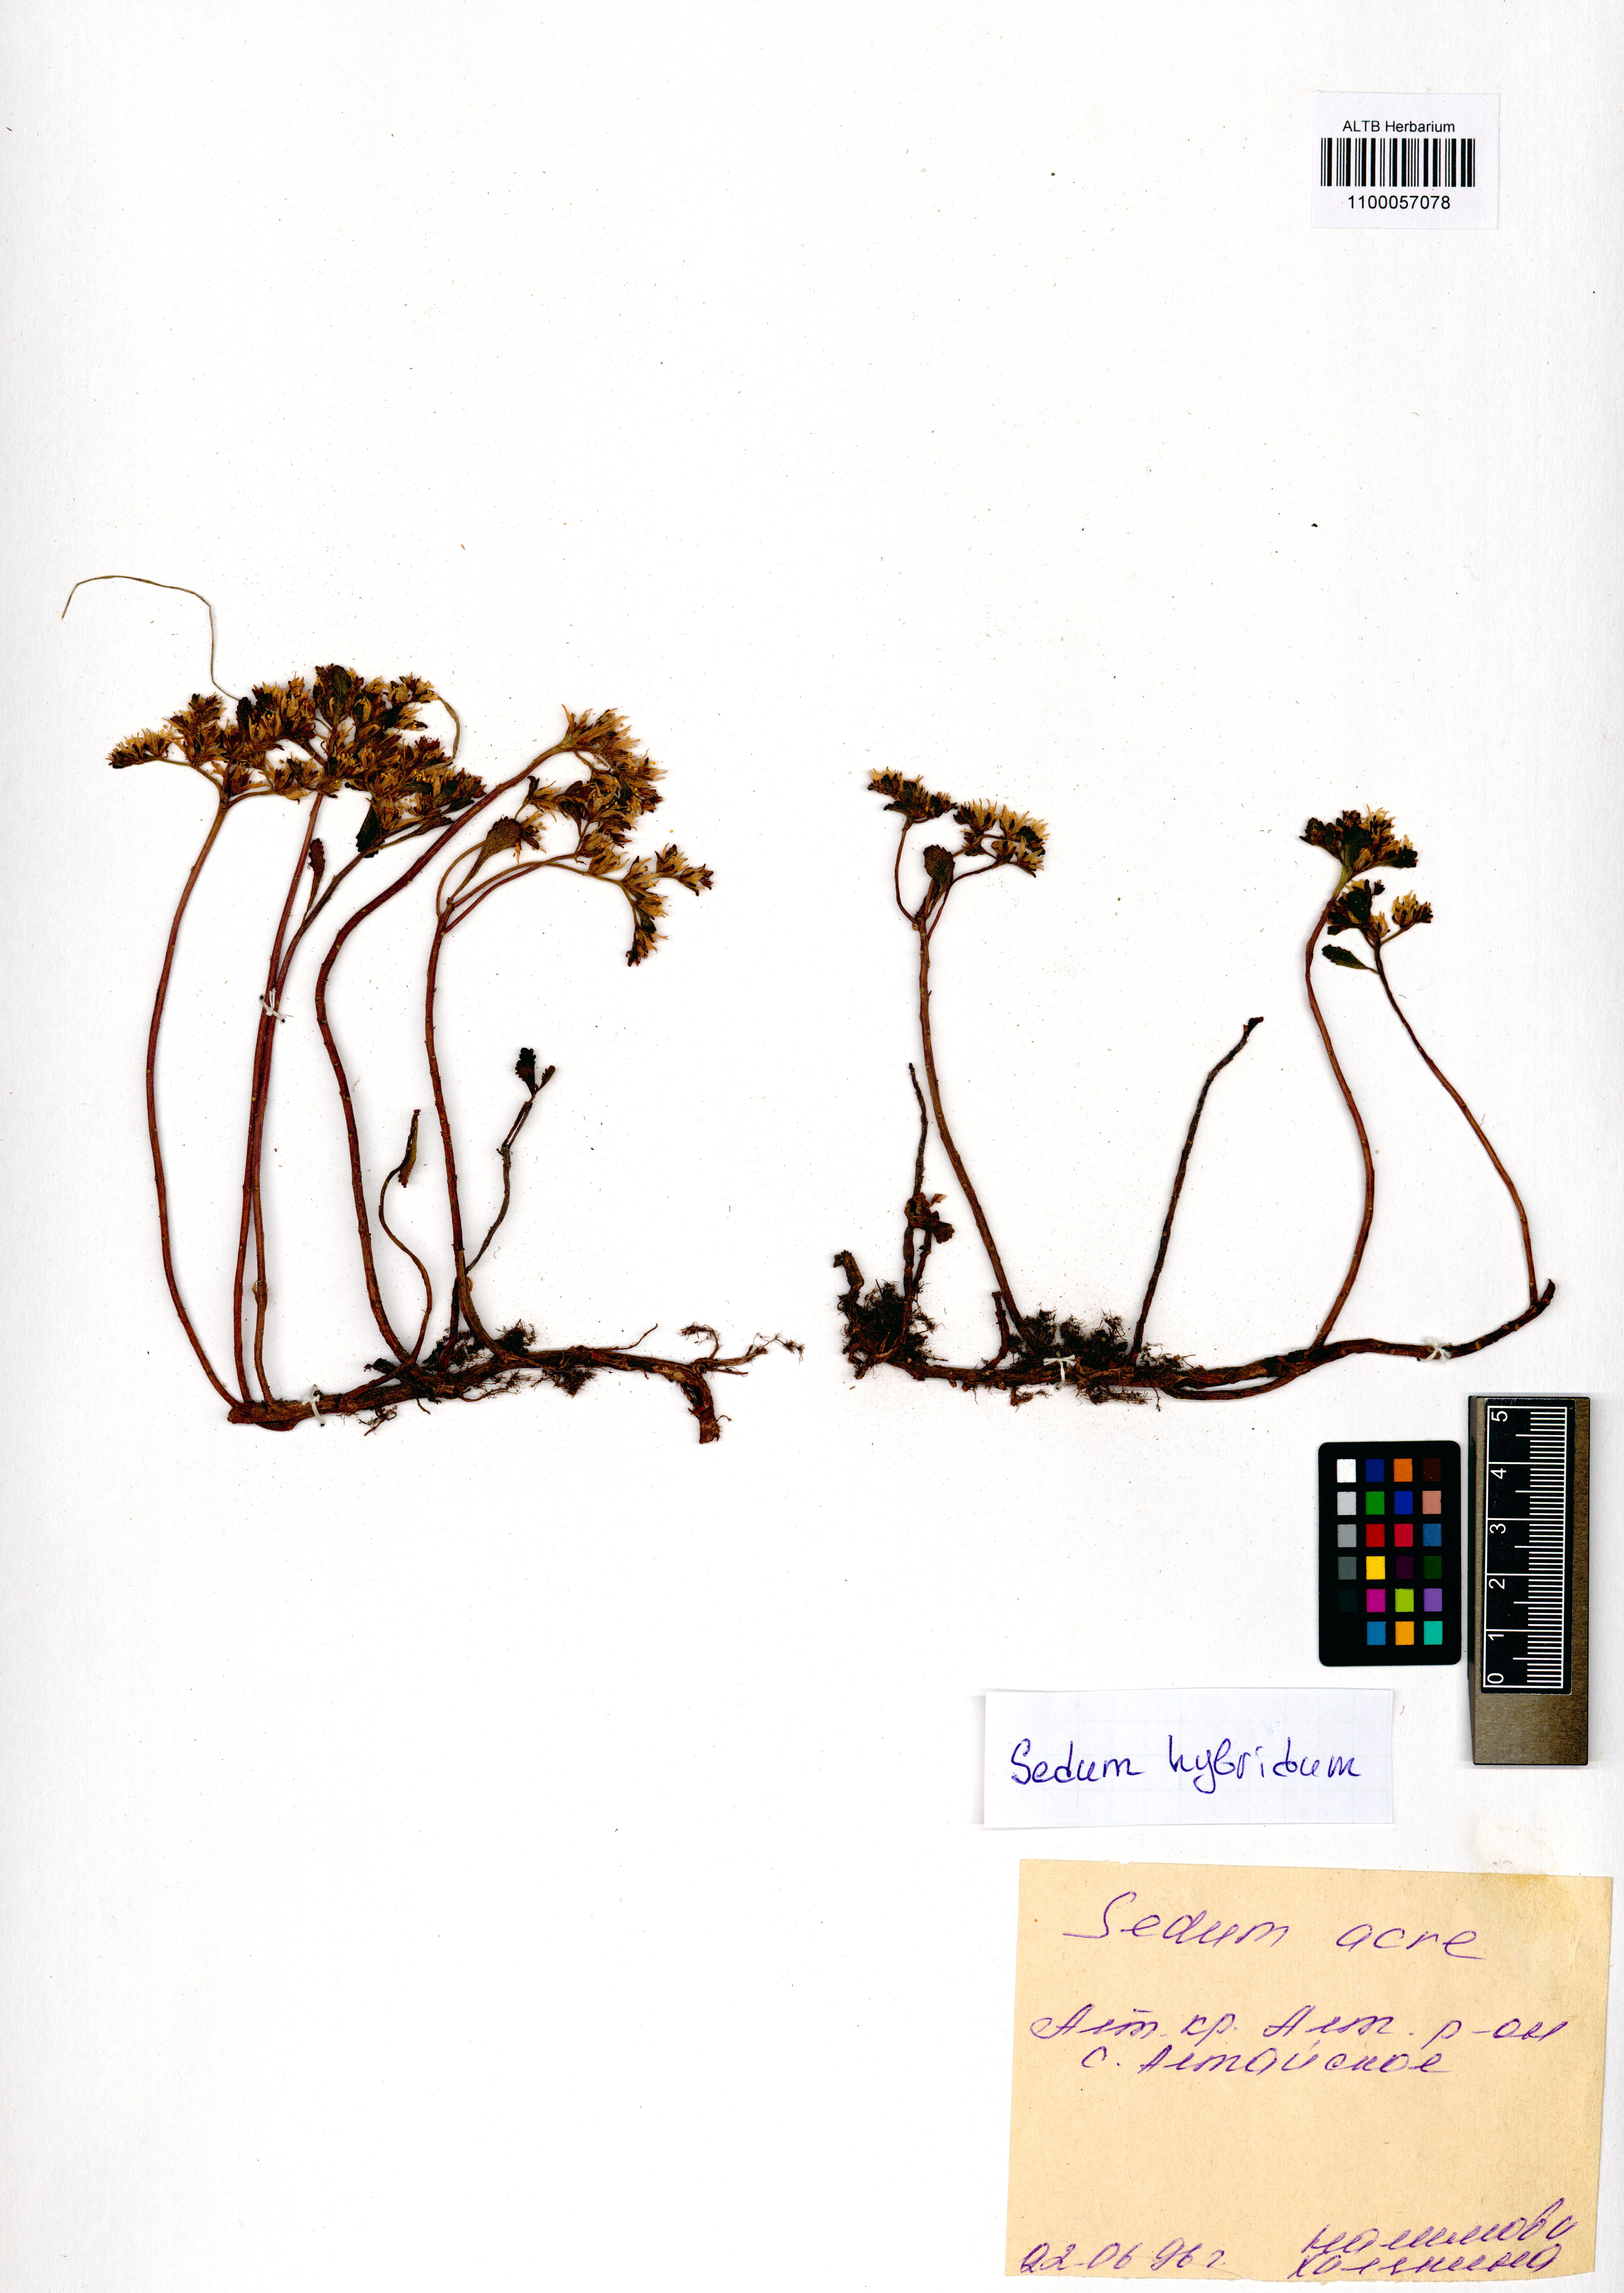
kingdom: Plantae
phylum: Tracheophyta
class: Magnoliopsida
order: Saxifragales
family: Crassulaceae
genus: Phedimus
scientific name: Phedimus hybridus
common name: Hybrid stonecrop
